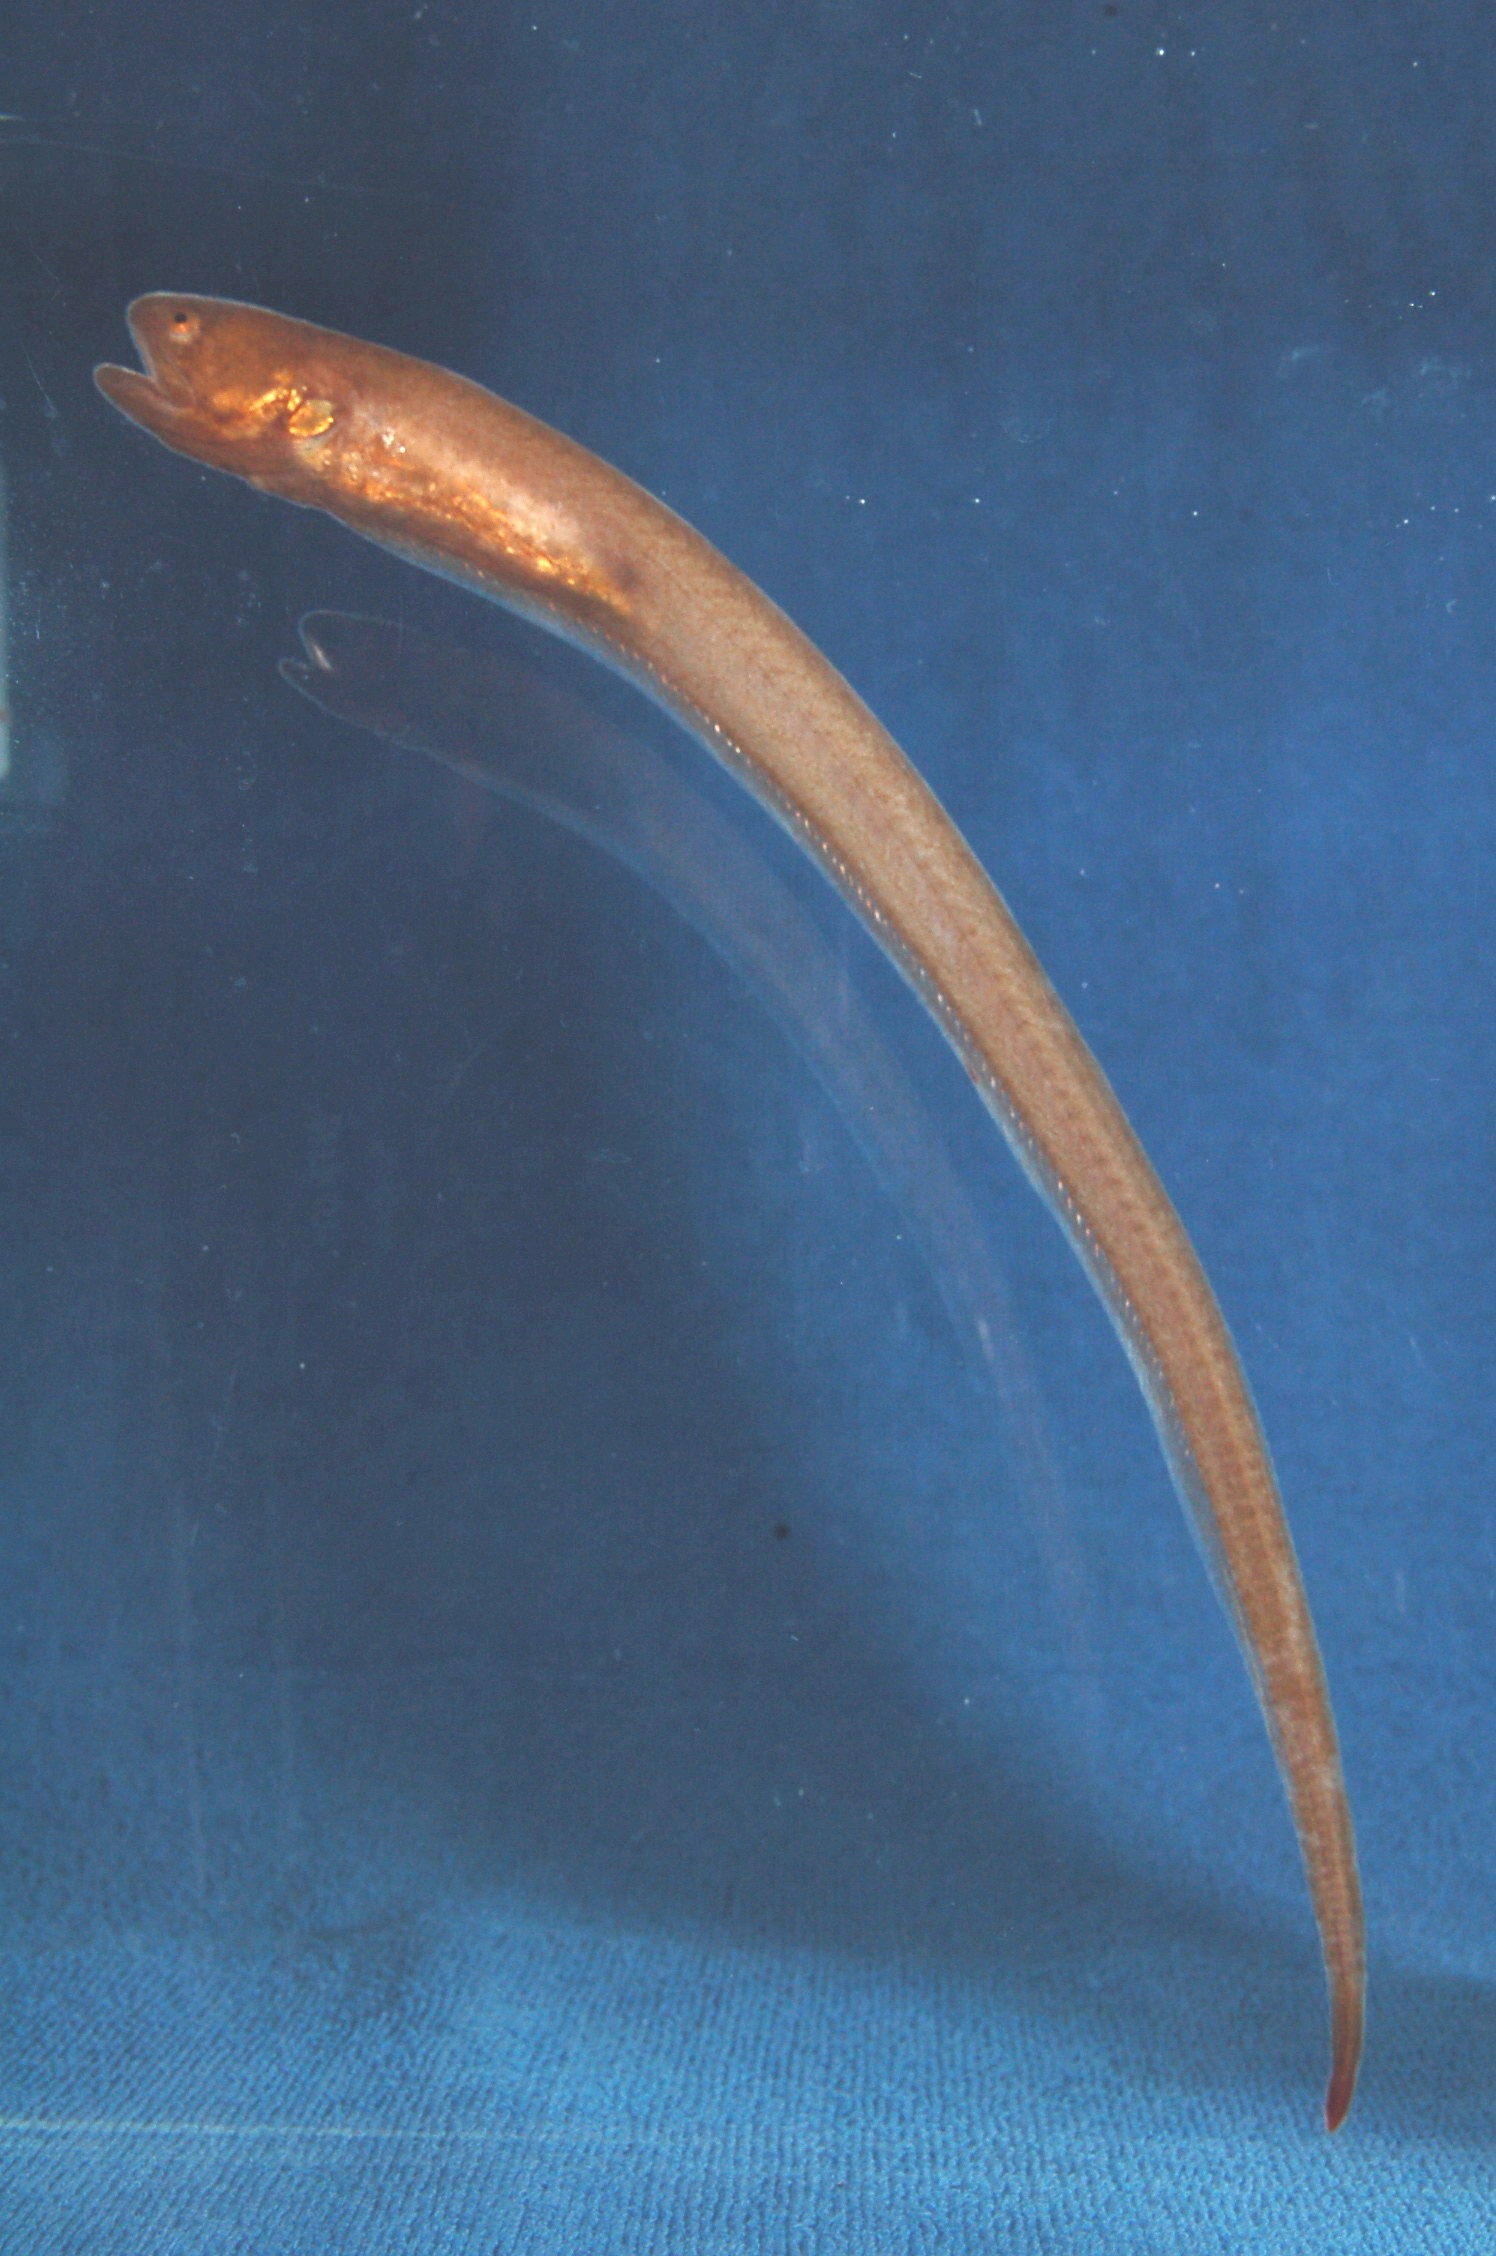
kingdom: Animalia
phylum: Chordata
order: Ophidiiformes
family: Carapidae
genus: Encheliophis
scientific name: Encheliophis boraborensis
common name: Pinhead pearlfish
